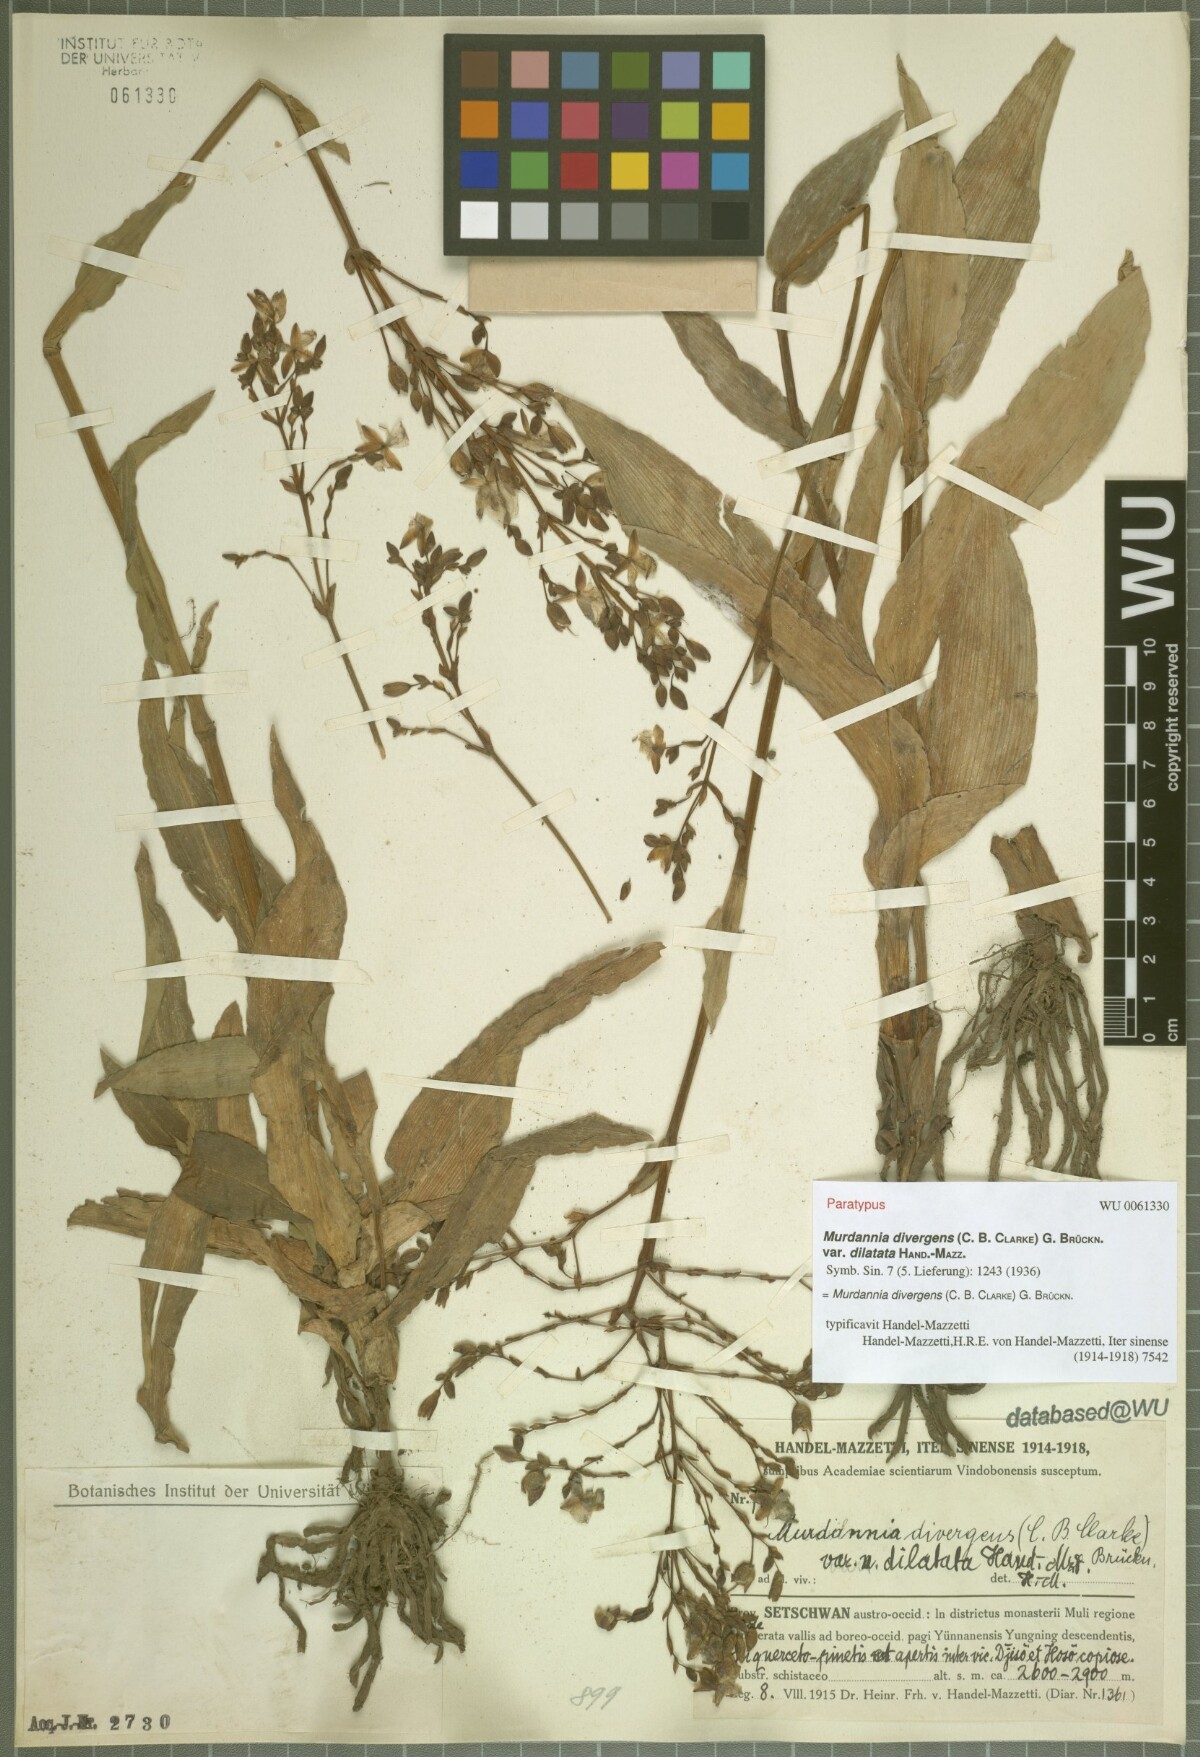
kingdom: Plantae
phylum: Tracheophyta
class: Liliopsida
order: Commelinales
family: Commelinaceae
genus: Murdannia
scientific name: Murdannia divergens
